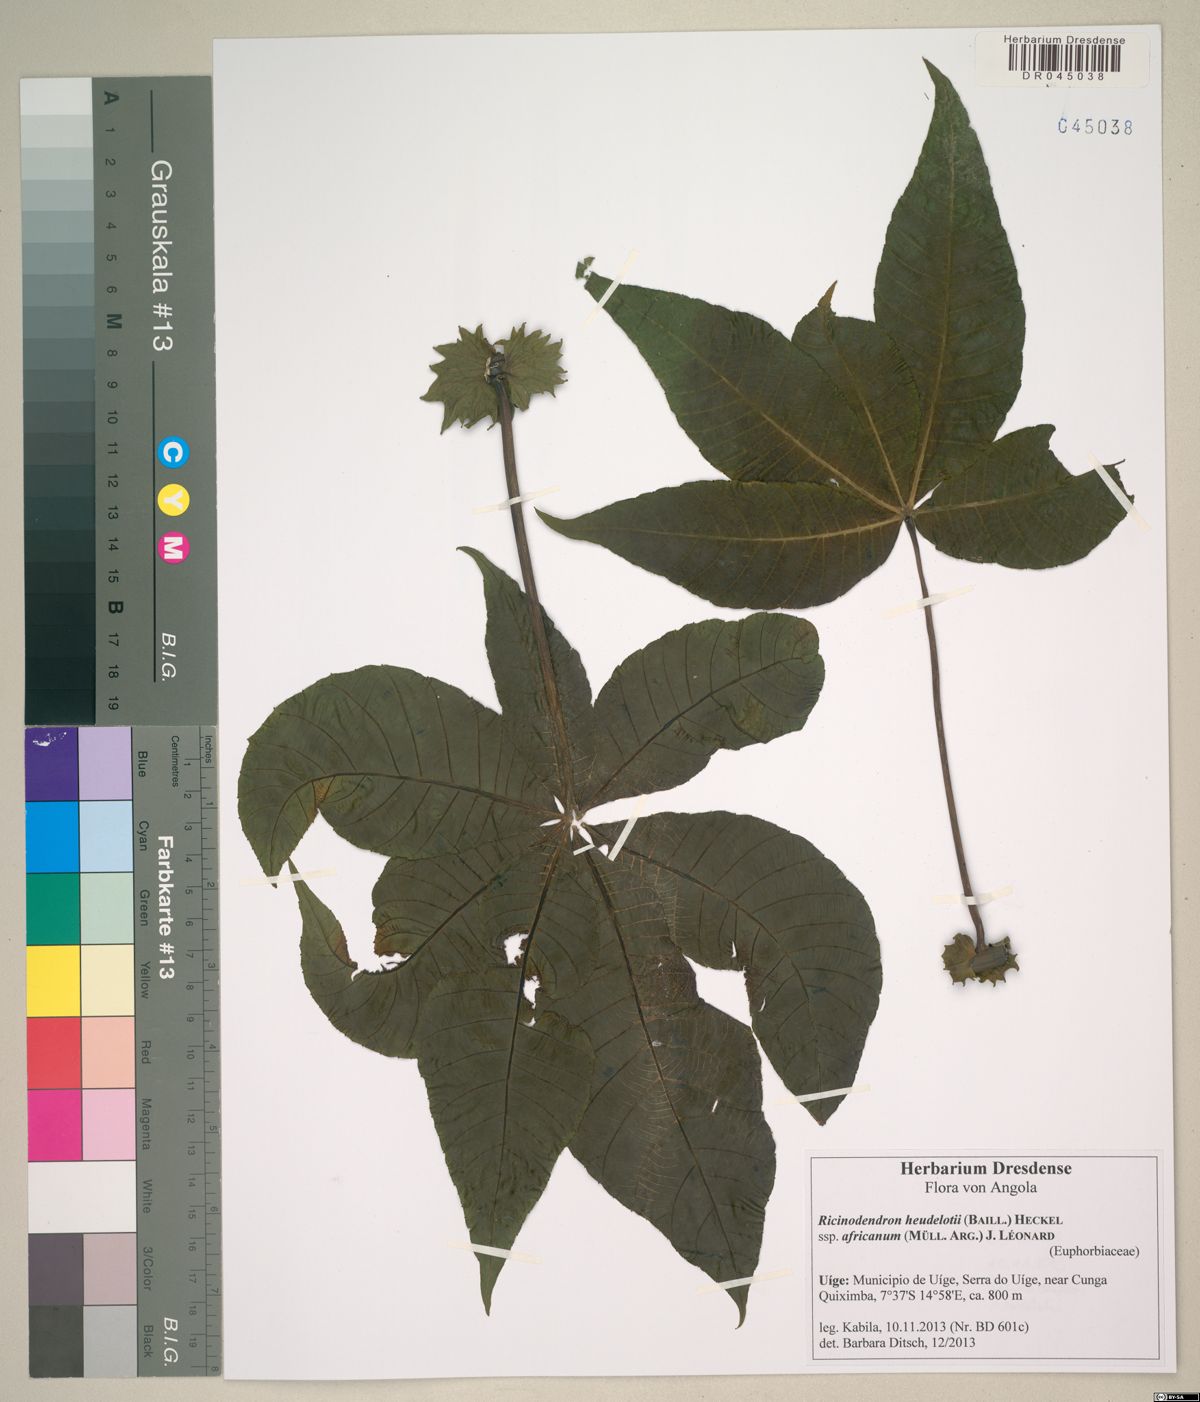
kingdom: Plantae
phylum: Tracheophyta
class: Magnoliopsida
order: Malpighiales
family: Euphorbiaceae
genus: Ricinodendron
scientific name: Ricinodendron heudelotii
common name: African nut-tree
